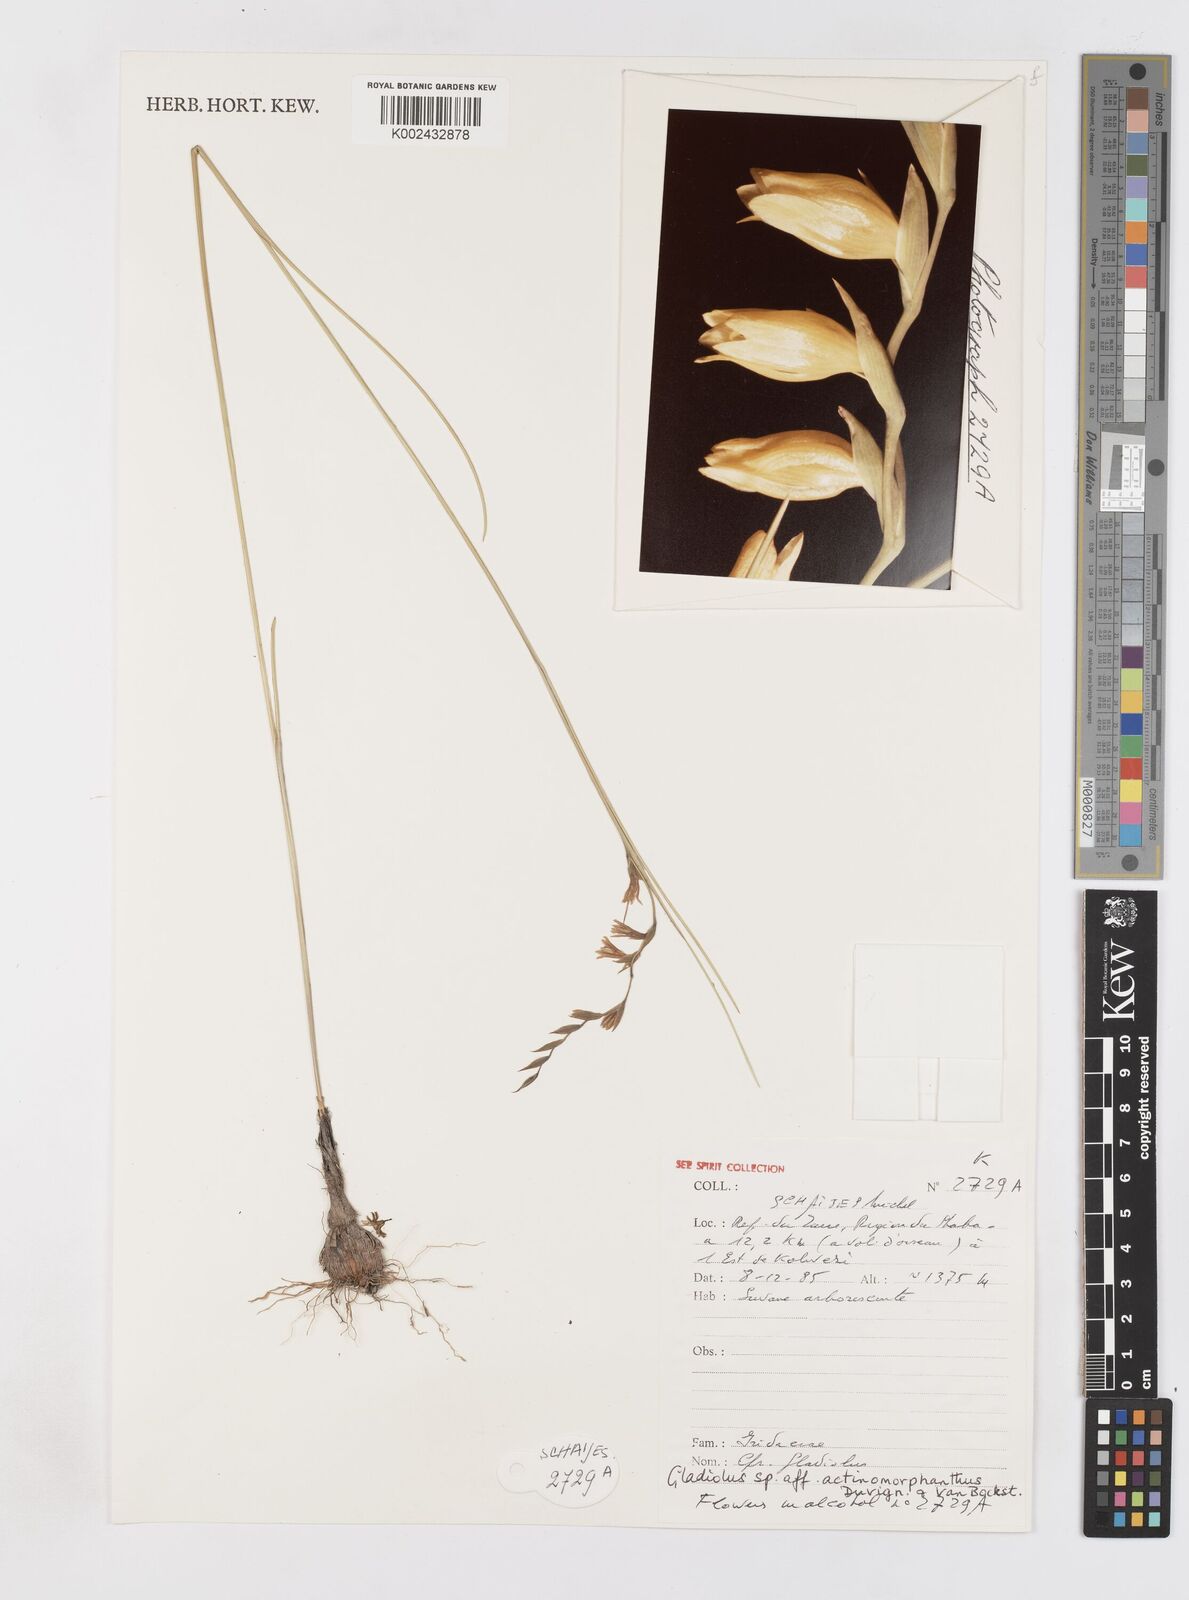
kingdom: Plantae
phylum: Tracheophyta
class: Liliopsida
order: Asparagales
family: Iridaceae
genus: Gladiolus
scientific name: Gladiolus actinomorphanthus
